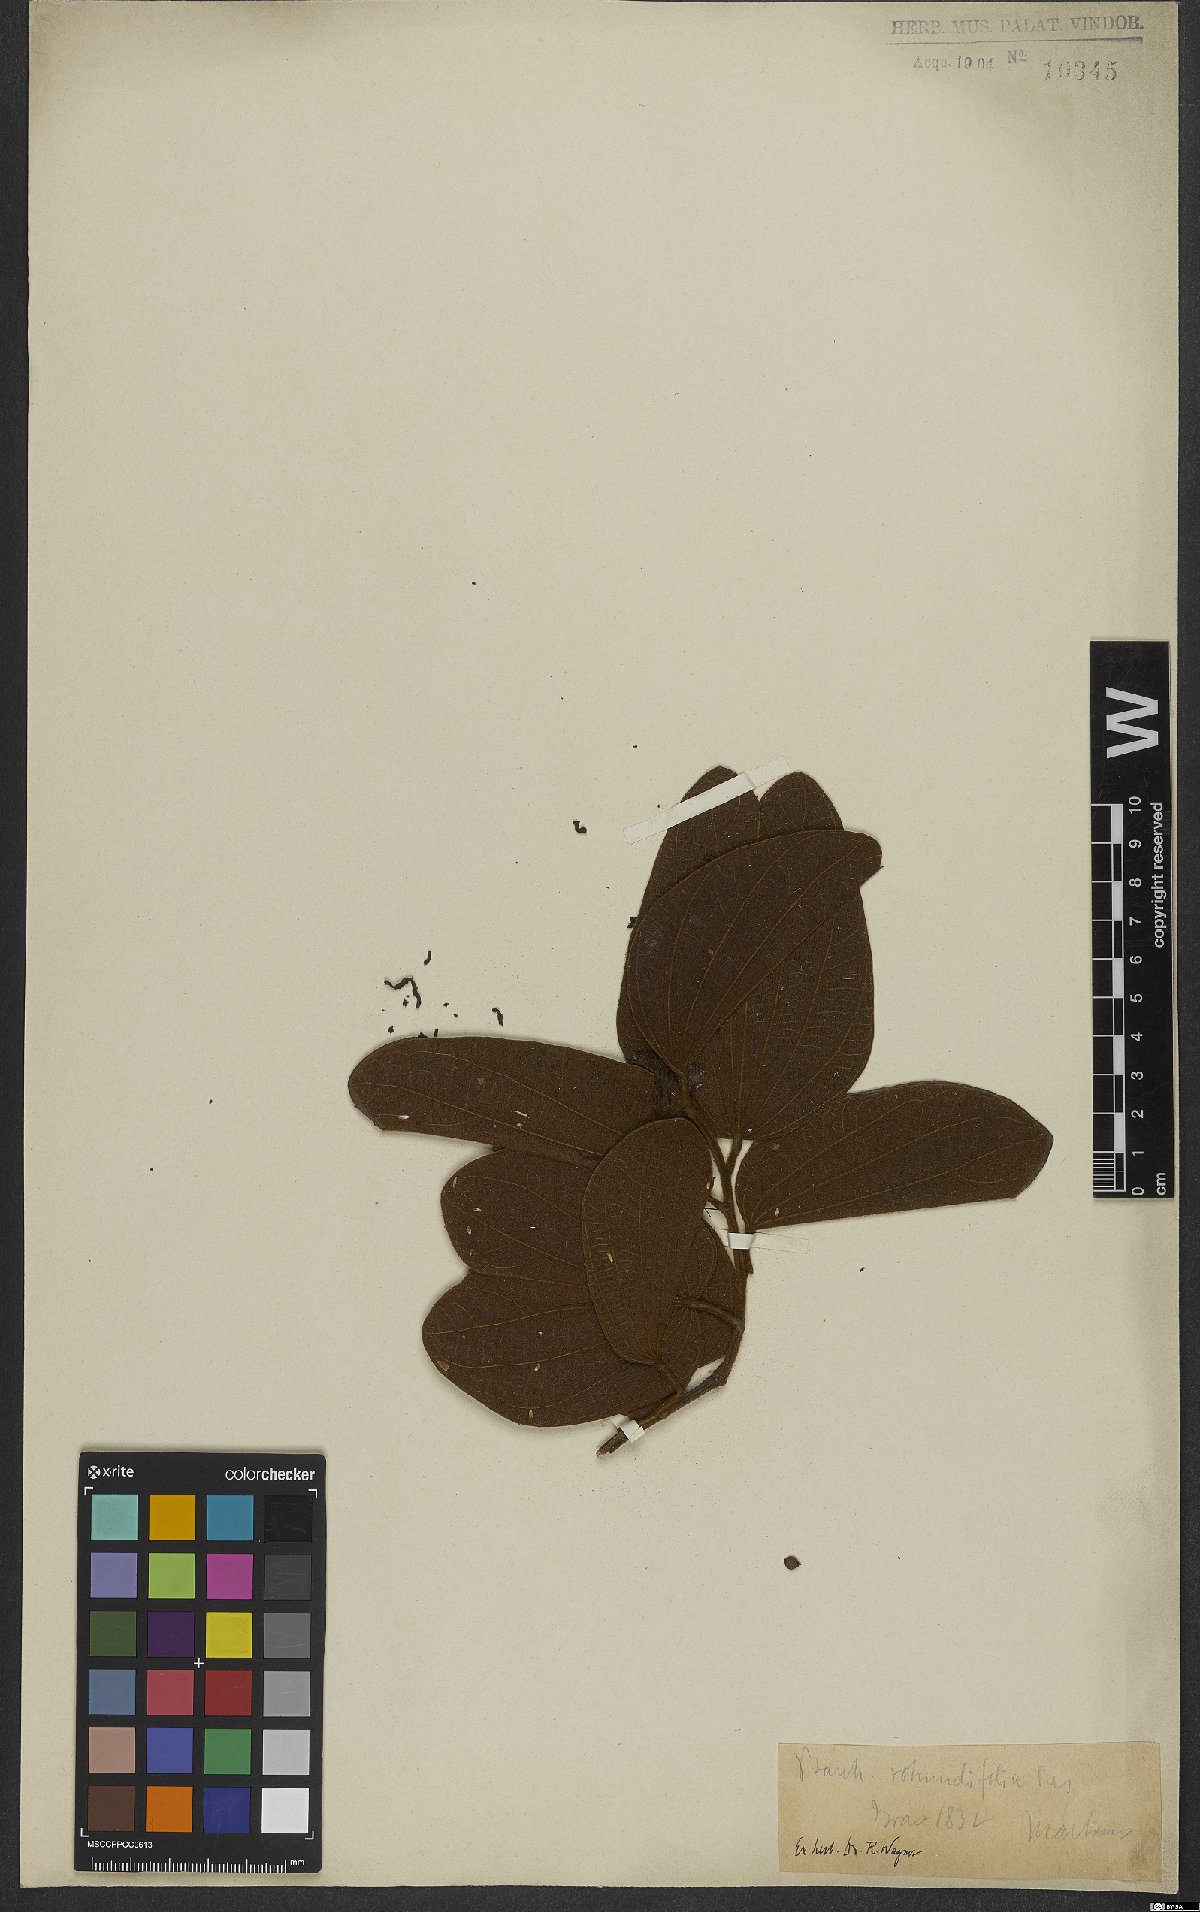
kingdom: Plantae
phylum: Tracheophyta
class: Magnoliopsida
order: Fabales
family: Fabaceae
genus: Bauhinia
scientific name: Bauhinia subrotundifolia
